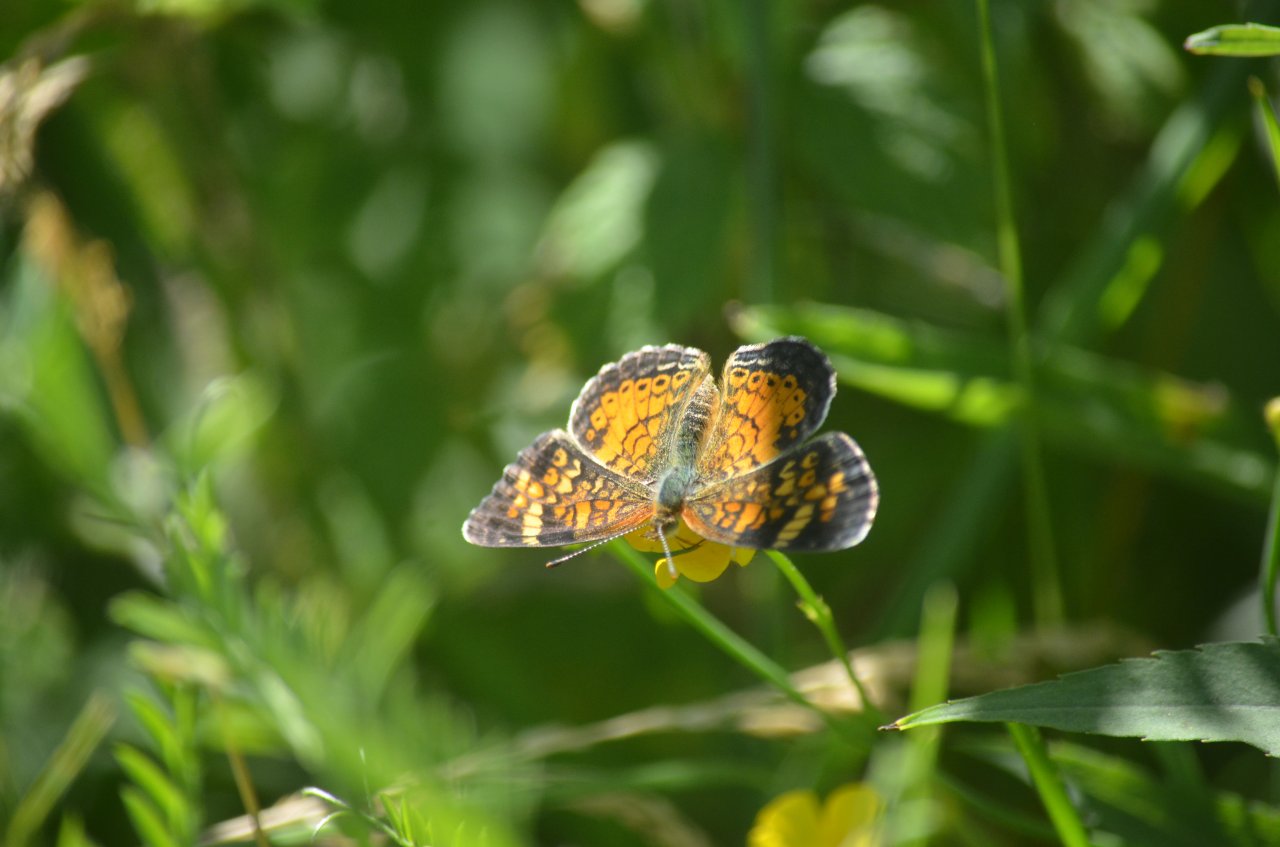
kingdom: Animalia
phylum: Arthropoda
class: Insecta
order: Lepidoptera
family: Nymphalidae
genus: Phyciodes
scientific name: Phyciodes tharos
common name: Northern Crescent
